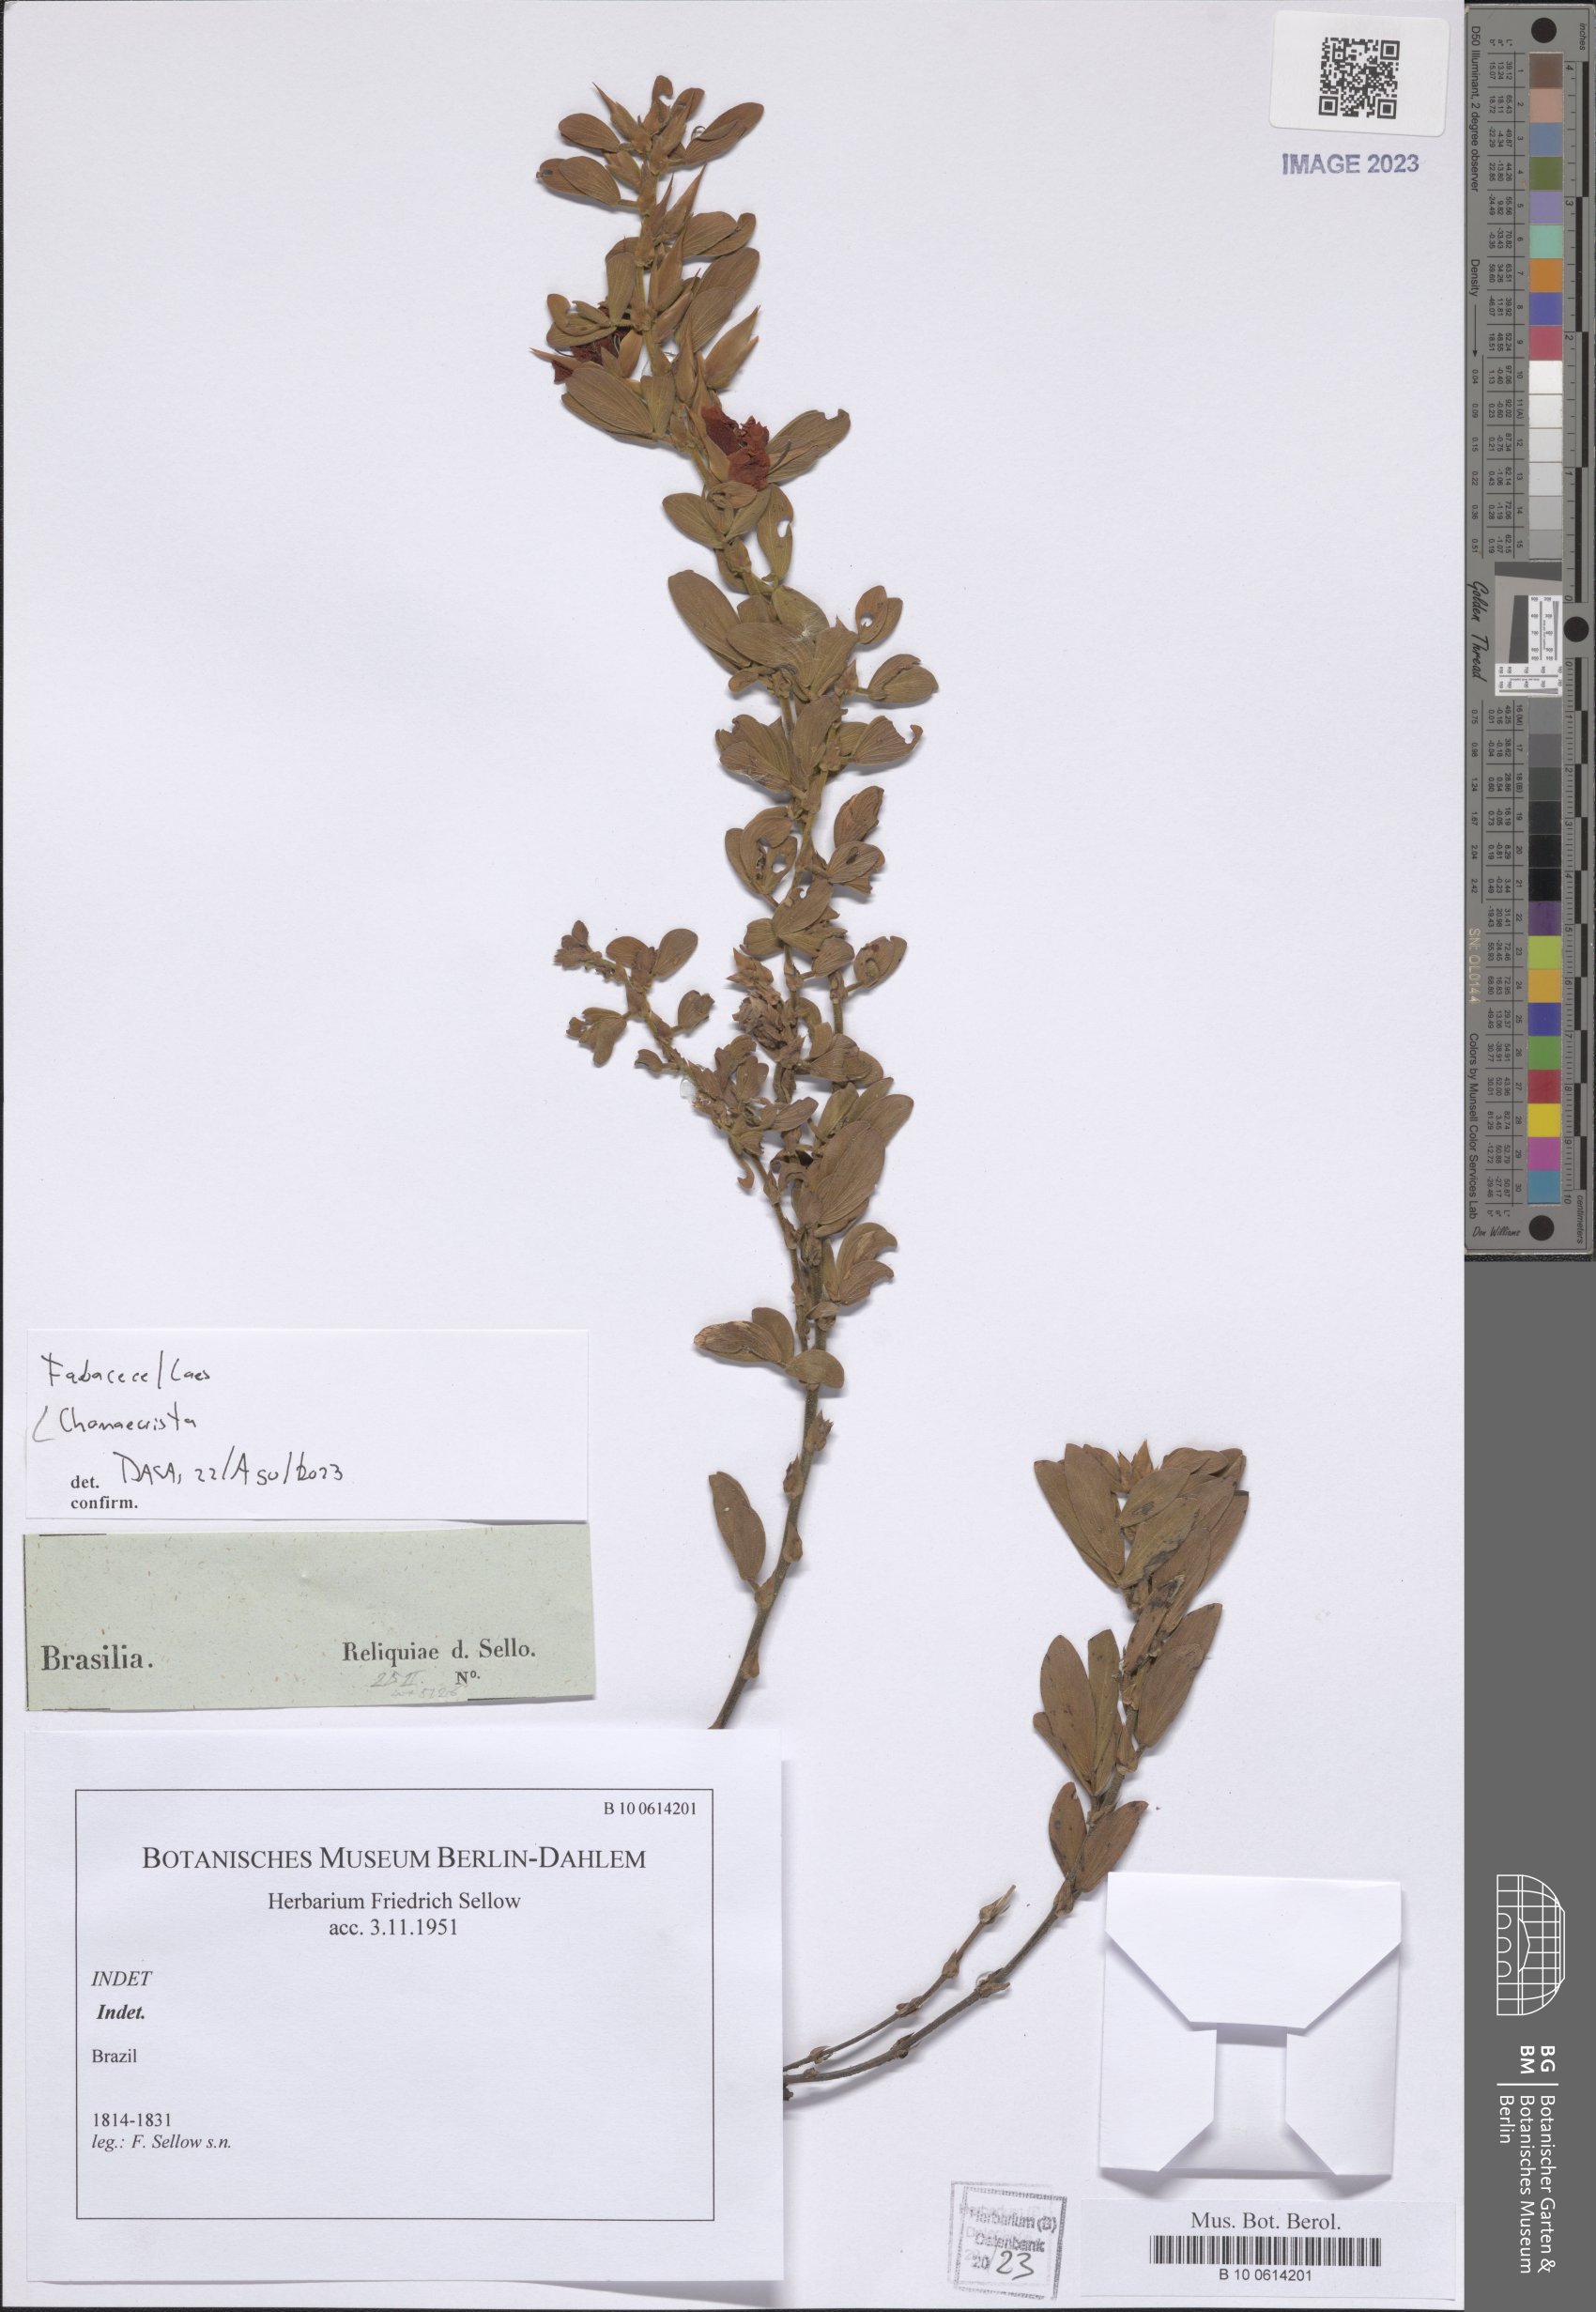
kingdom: Plantae
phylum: Tracheophyta
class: Magnoliopsida
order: Fabales
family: Fabaceae
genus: Chamaecrista
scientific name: Chamaecrista
